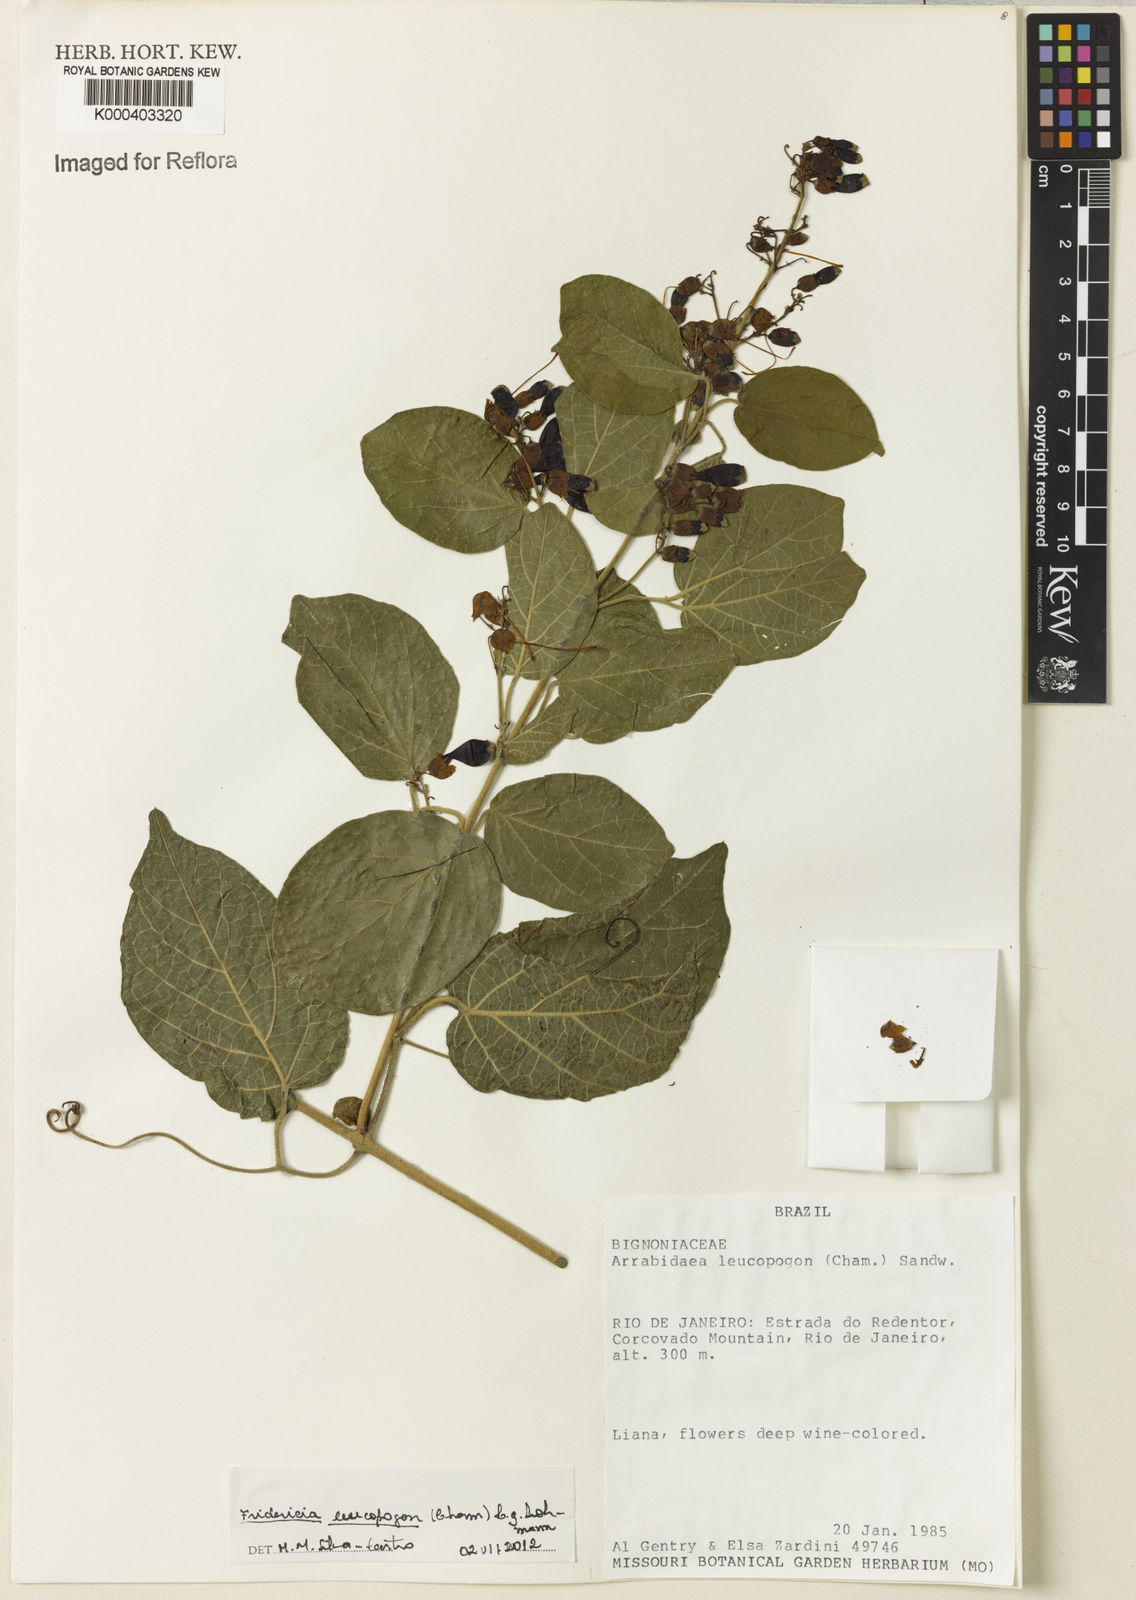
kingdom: Plantae
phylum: Tracheophyta
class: Magnoliopsida
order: Lamiales
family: Bignoniaceae
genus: Fridericia
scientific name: Fridericia leucopogon
